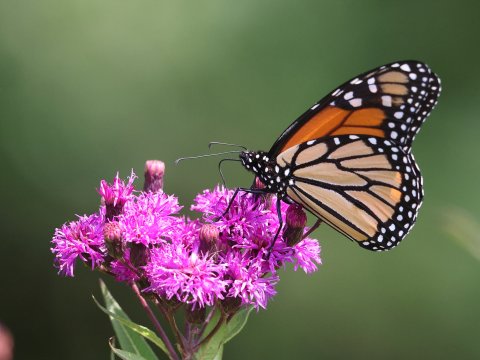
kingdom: Animalia
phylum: Arthropoda
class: Insecta
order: Lepidoptera
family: Nymphalidae
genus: Danaus
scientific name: Danaus plexippus
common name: Monarch
